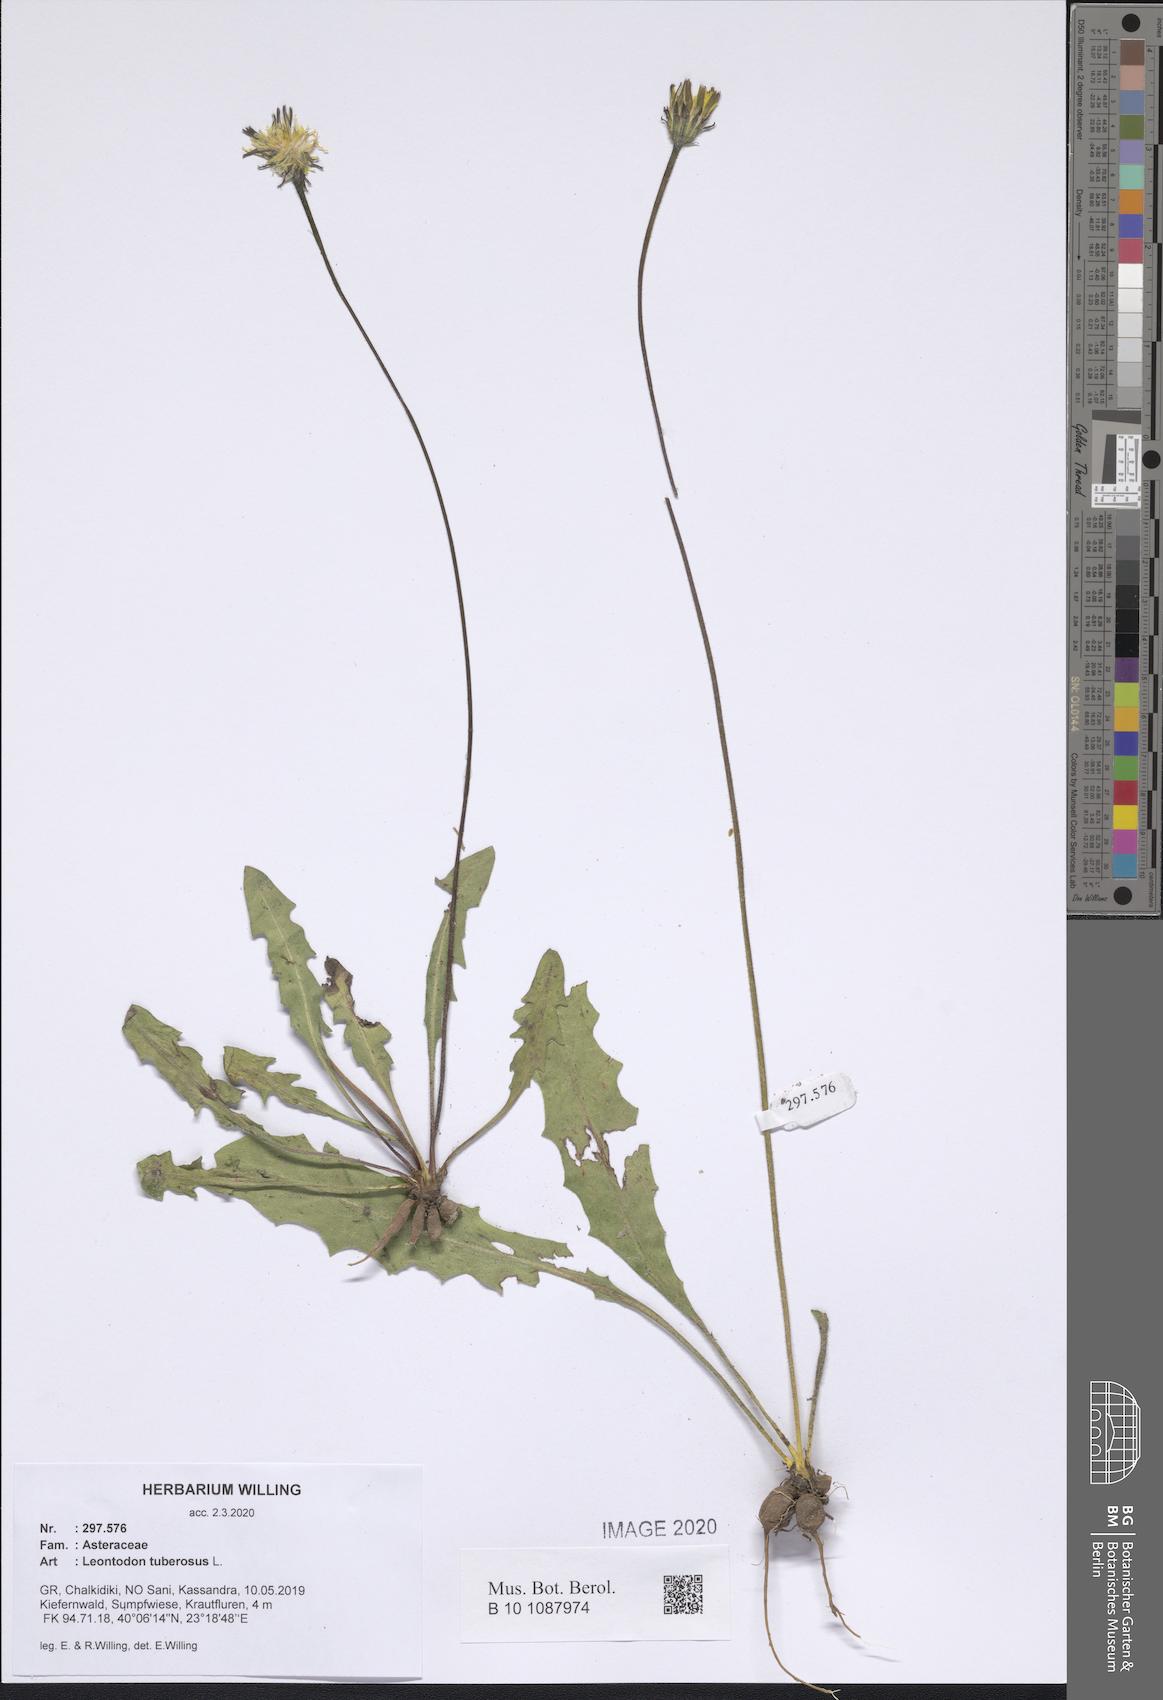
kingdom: Plantae
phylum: Tracheophyta
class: Magnoliopsida
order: Asterales
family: Asteraceae
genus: Thrincia
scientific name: Thrincia tuberosa
